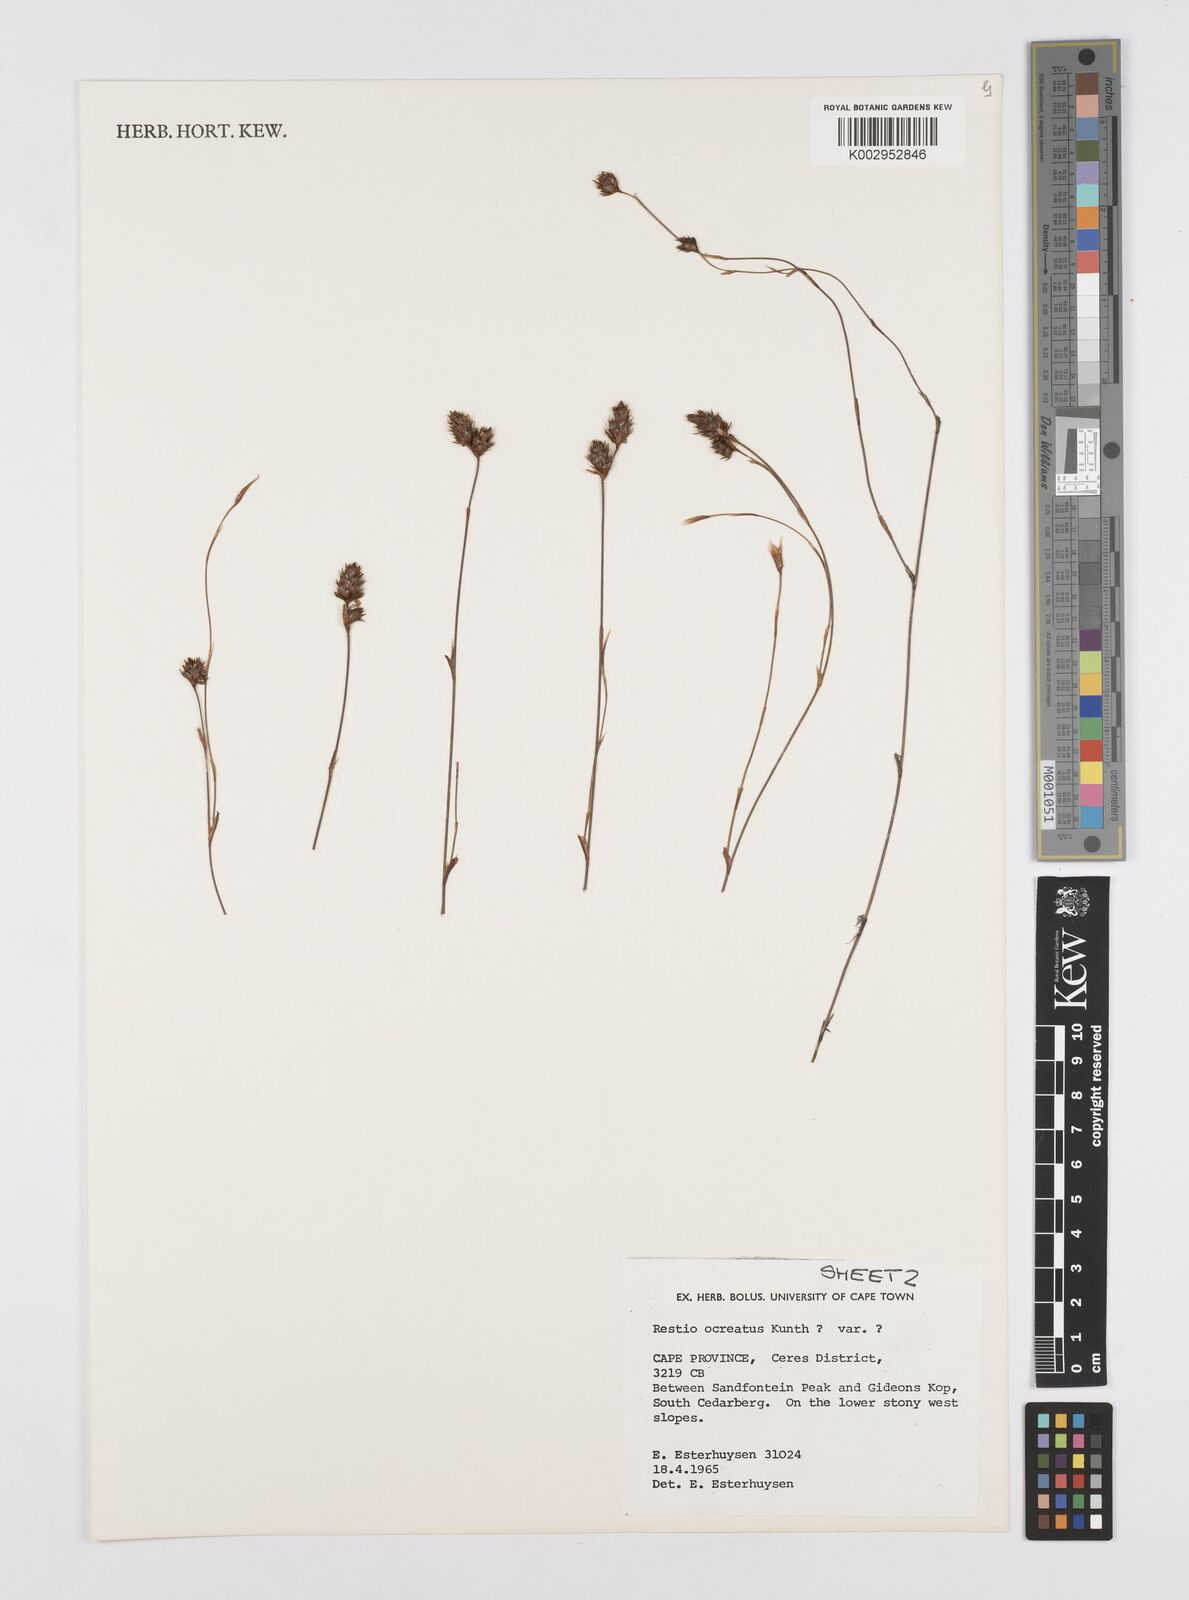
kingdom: Plantae
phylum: Tracheophyta
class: Liliopsida
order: Poales
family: Restionaceae
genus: Restio
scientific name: Restio ocreatus
